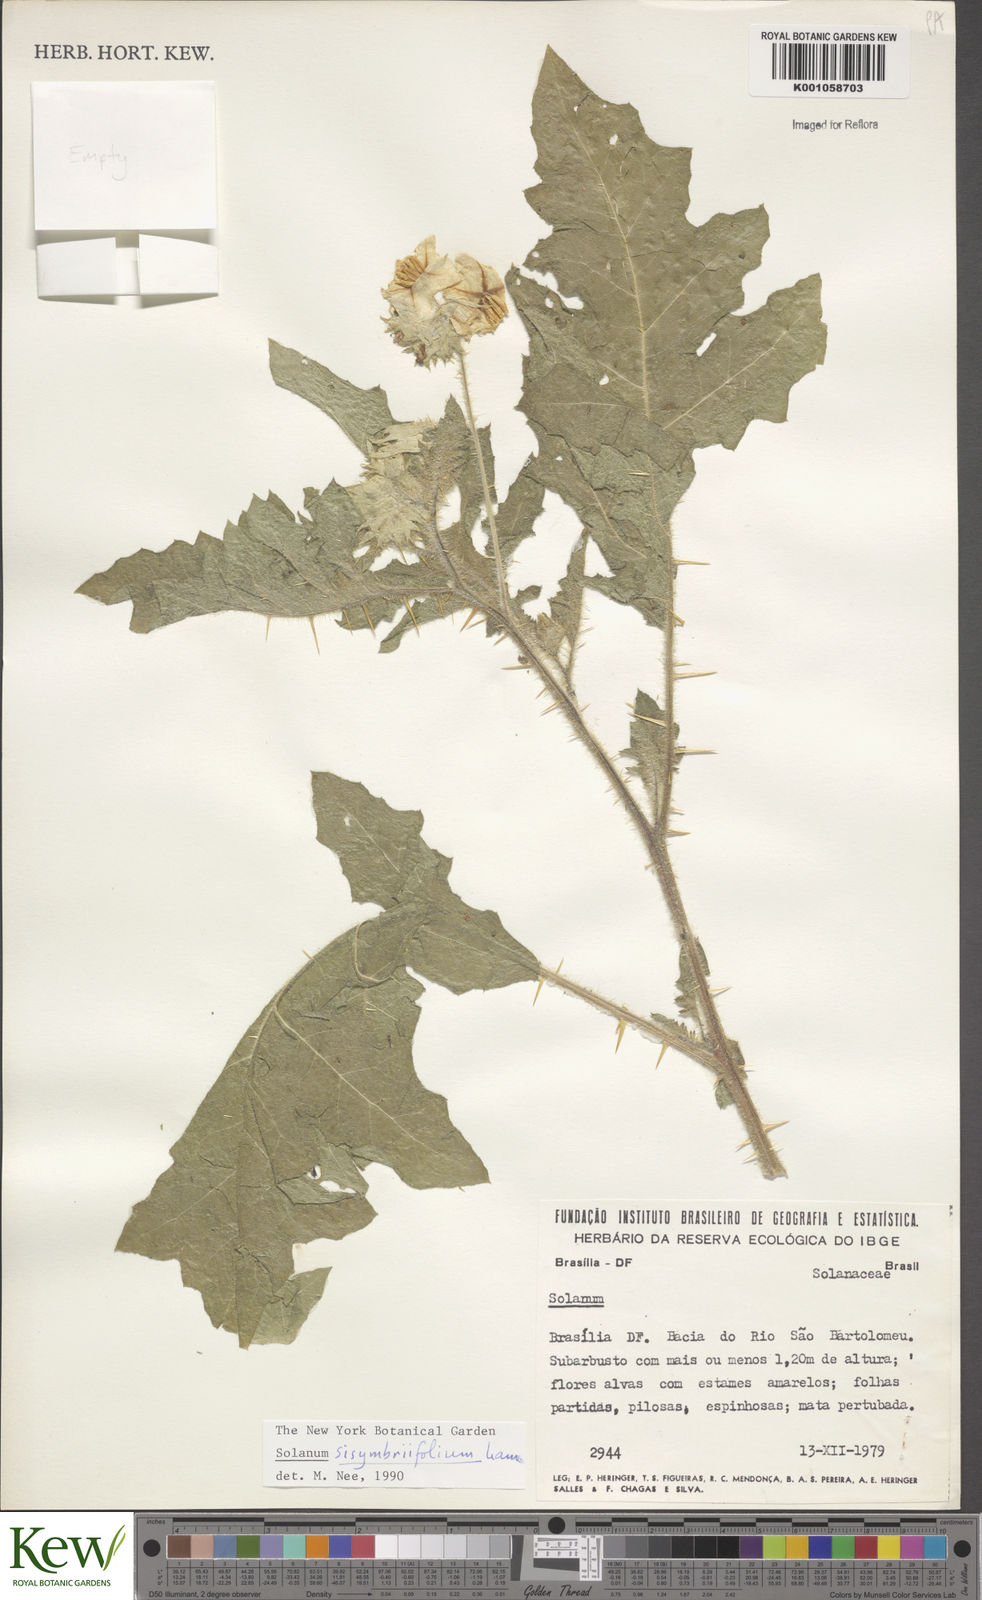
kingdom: Plantae
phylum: Tracheophyta
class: Magnoliopsida
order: Solanales
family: Solanaceae
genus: Solanum
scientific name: Solanum sisymbriifolium
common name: Red buffalo-bur
